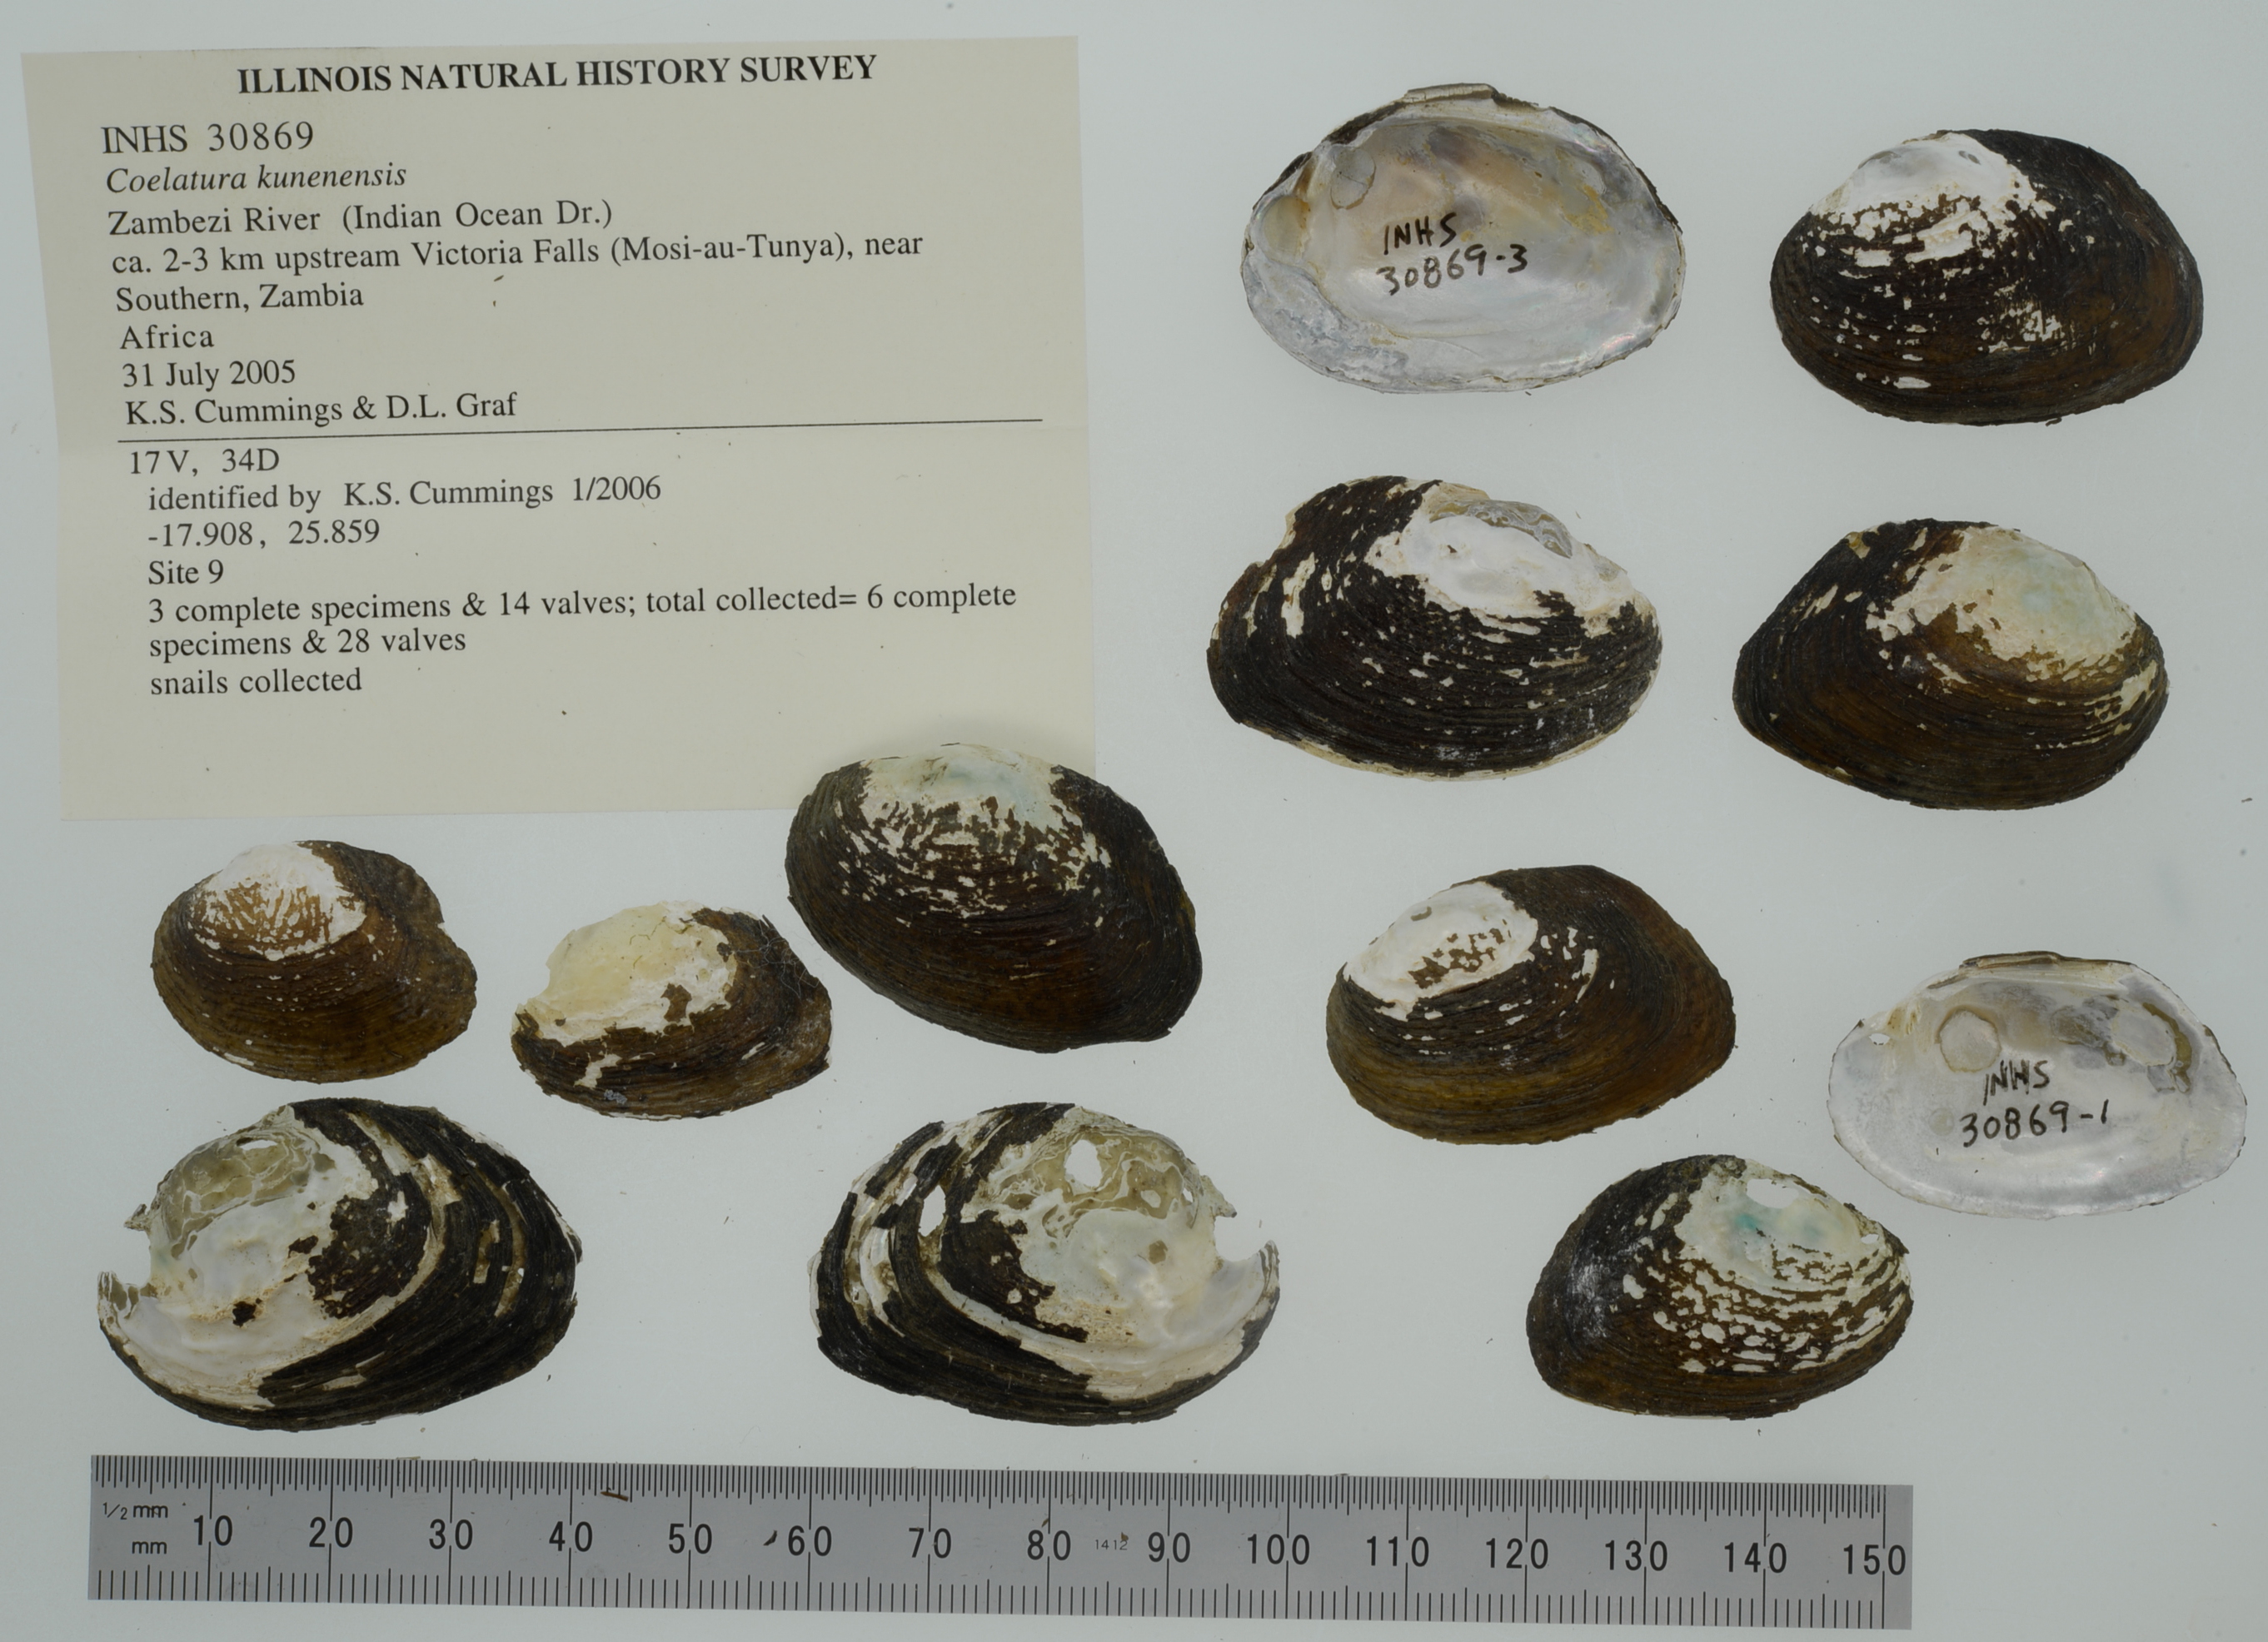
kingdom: Animalia
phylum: Mollusca
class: Bivalvia
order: Unionida
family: Unionidae
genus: Coelatura
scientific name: Coelatura kunenensis
